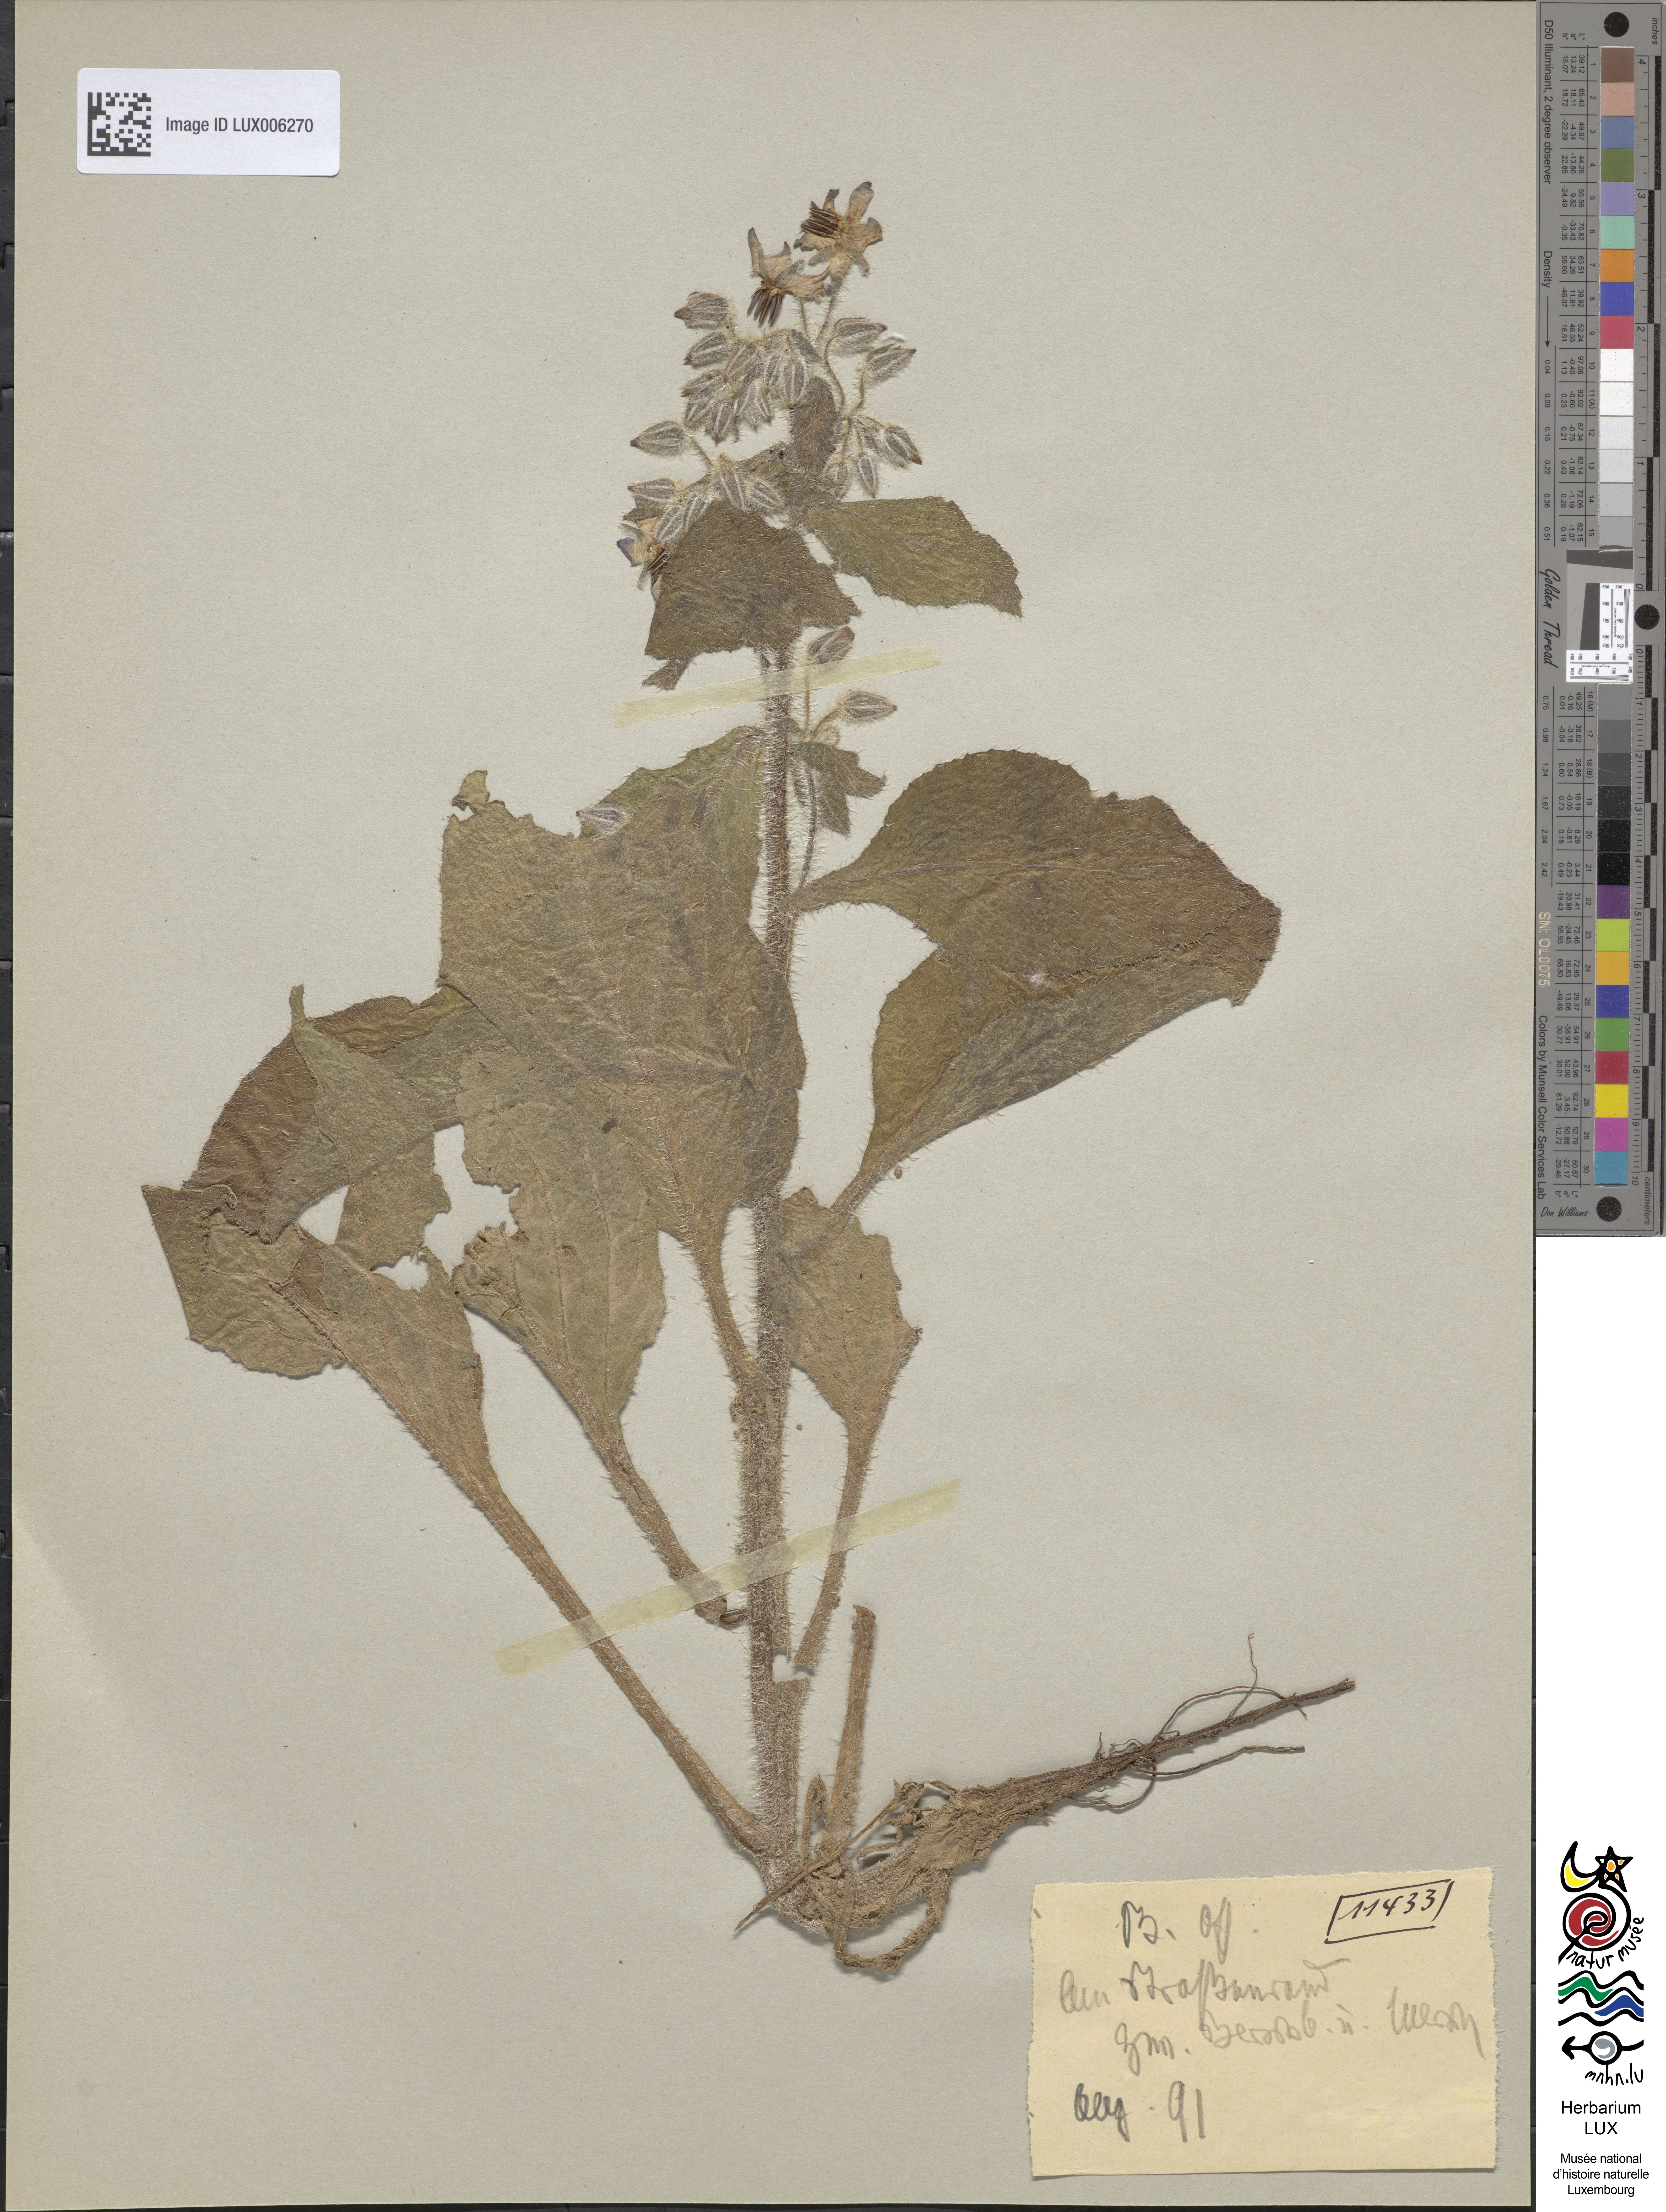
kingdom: Plantae
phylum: Tracheophyta
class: Magnoliopsida
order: Boraginales
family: Boraginaceae
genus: Borago
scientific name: Borago officinalis
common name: Borage
